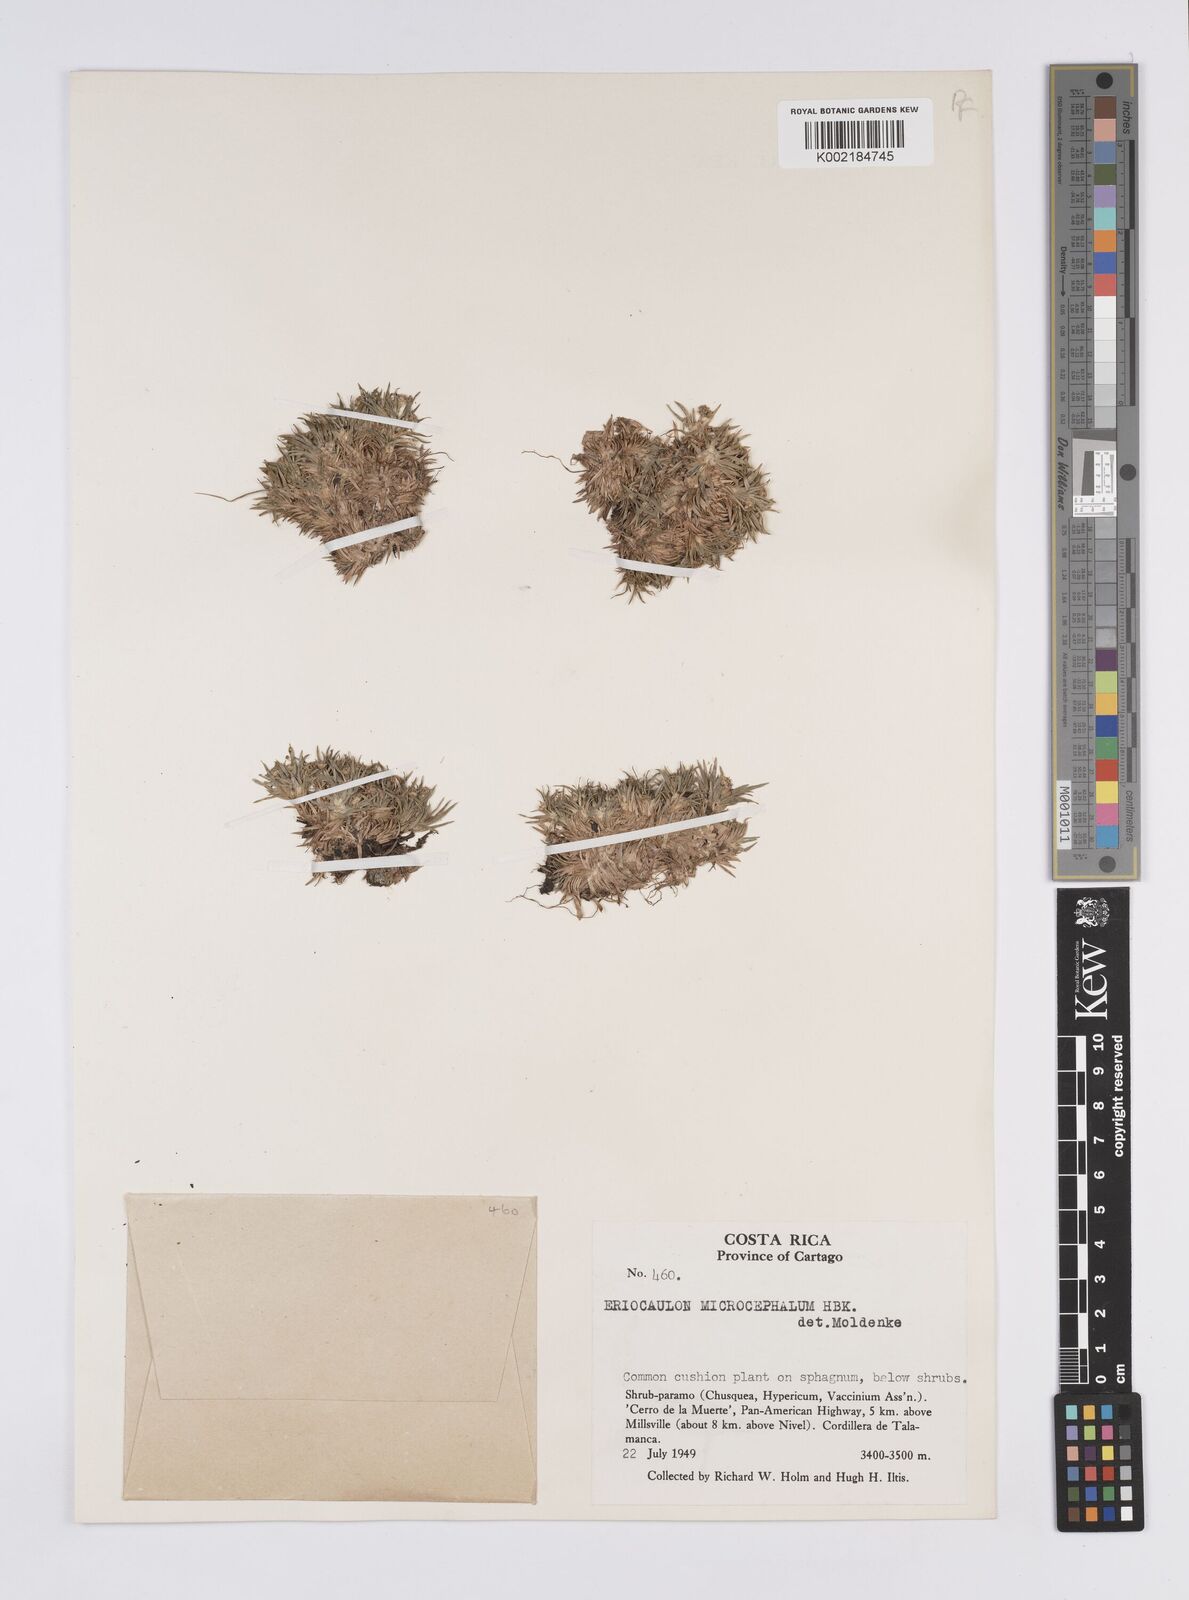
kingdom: Plantae
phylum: Tracheophyta
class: Liliopsida
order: Poales
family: Eriocaulaceae
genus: Eriocaulon
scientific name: Eriocaulon benthamii
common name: Bentham's pipewort
